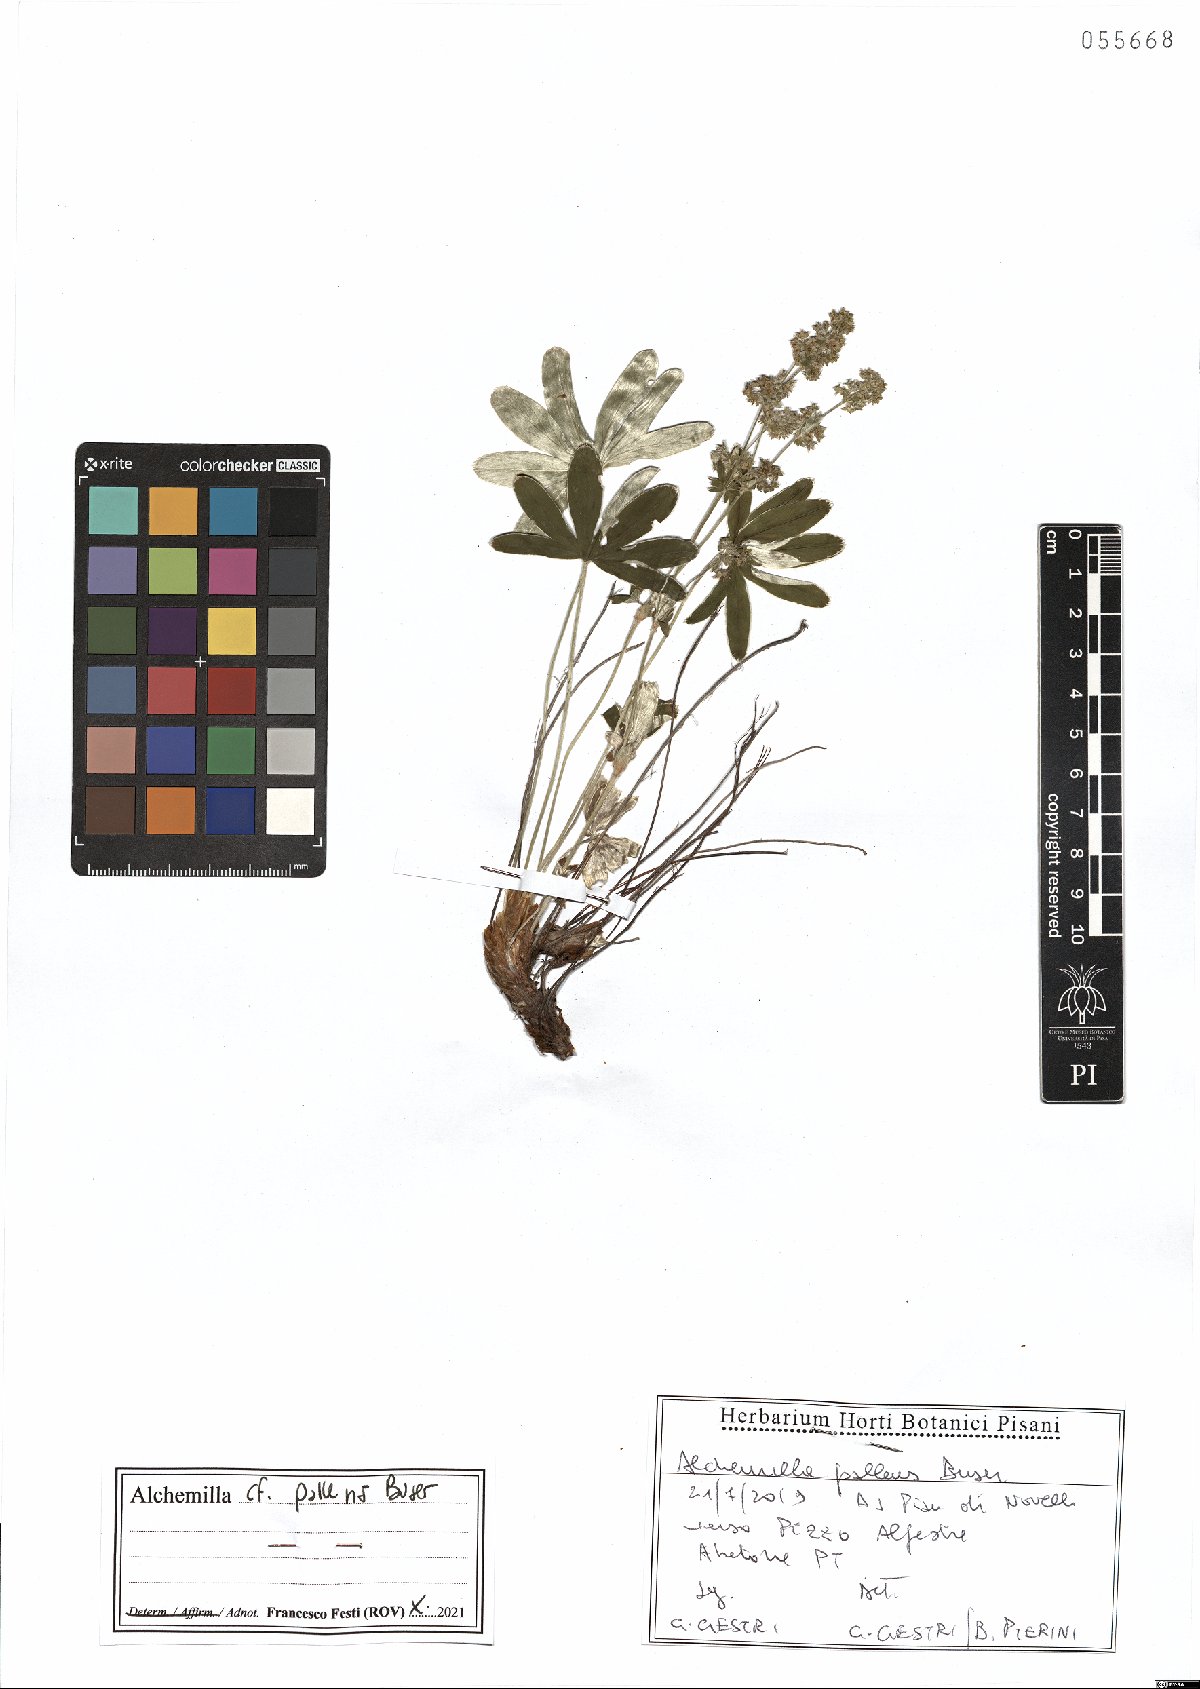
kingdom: Plantae
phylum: Tracheophyta
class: Magnoliopsida
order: Rosales
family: Rosaceae
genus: Alchemilla
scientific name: Alchemilla pallens
